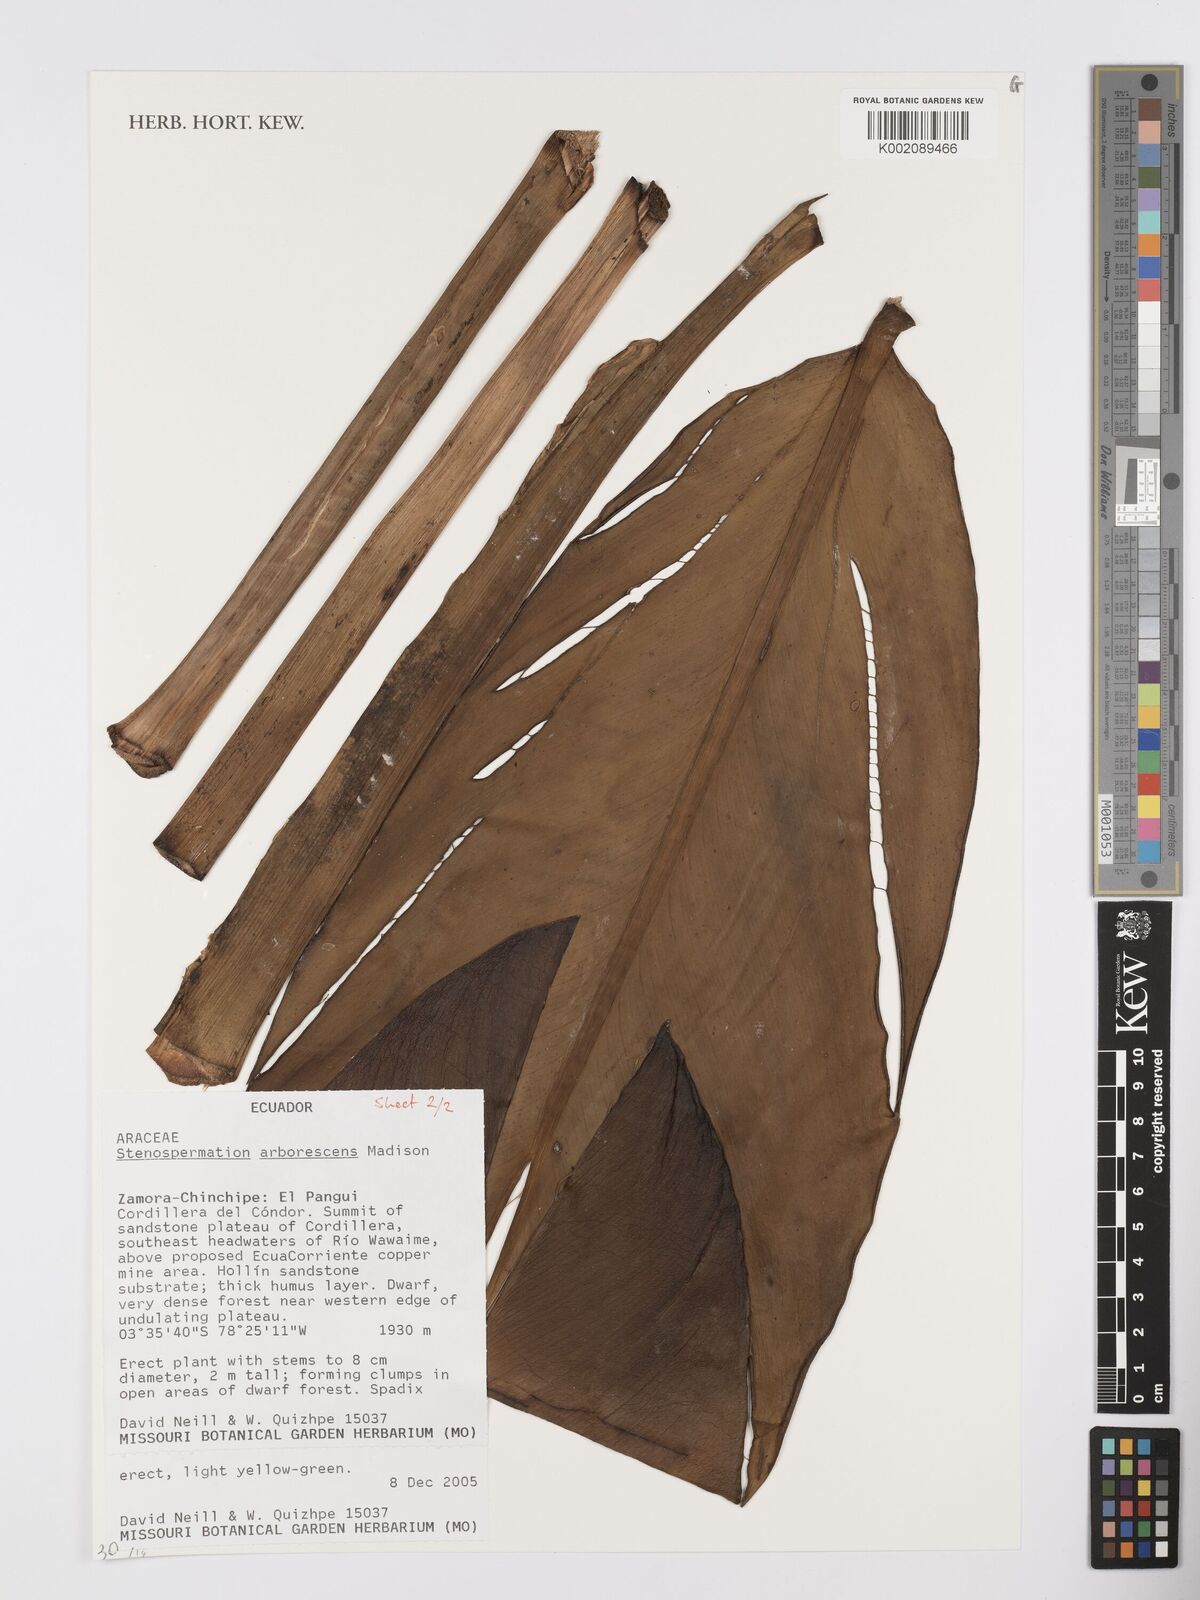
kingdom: Plantae
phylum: Tracheophyta
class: Liliopsida
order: Alismatales
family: Araceae
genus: Stenospermation
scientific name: Stenospermation arborescens
